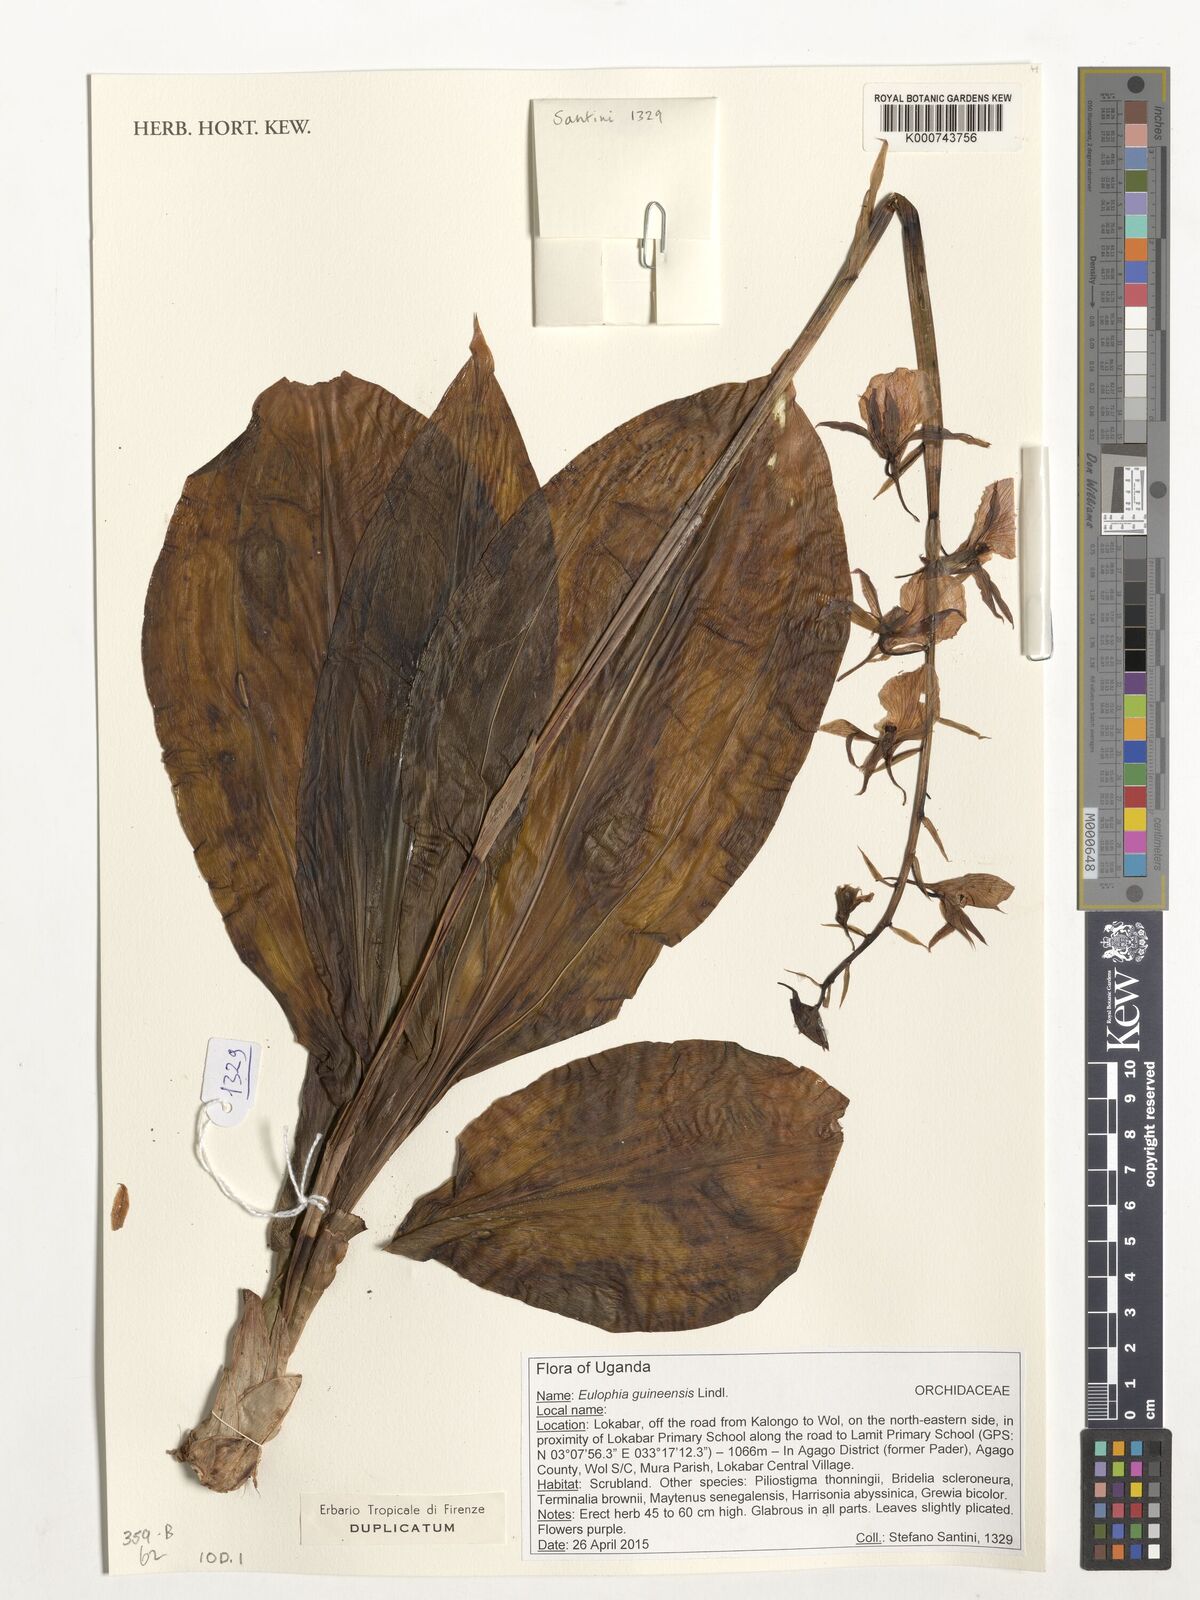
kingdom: Plantae
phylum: Tracheophyta
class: Liliopsida
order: Asparagales
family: Orchidaceae
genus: Eulophia
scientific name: Eulophia guineensis
